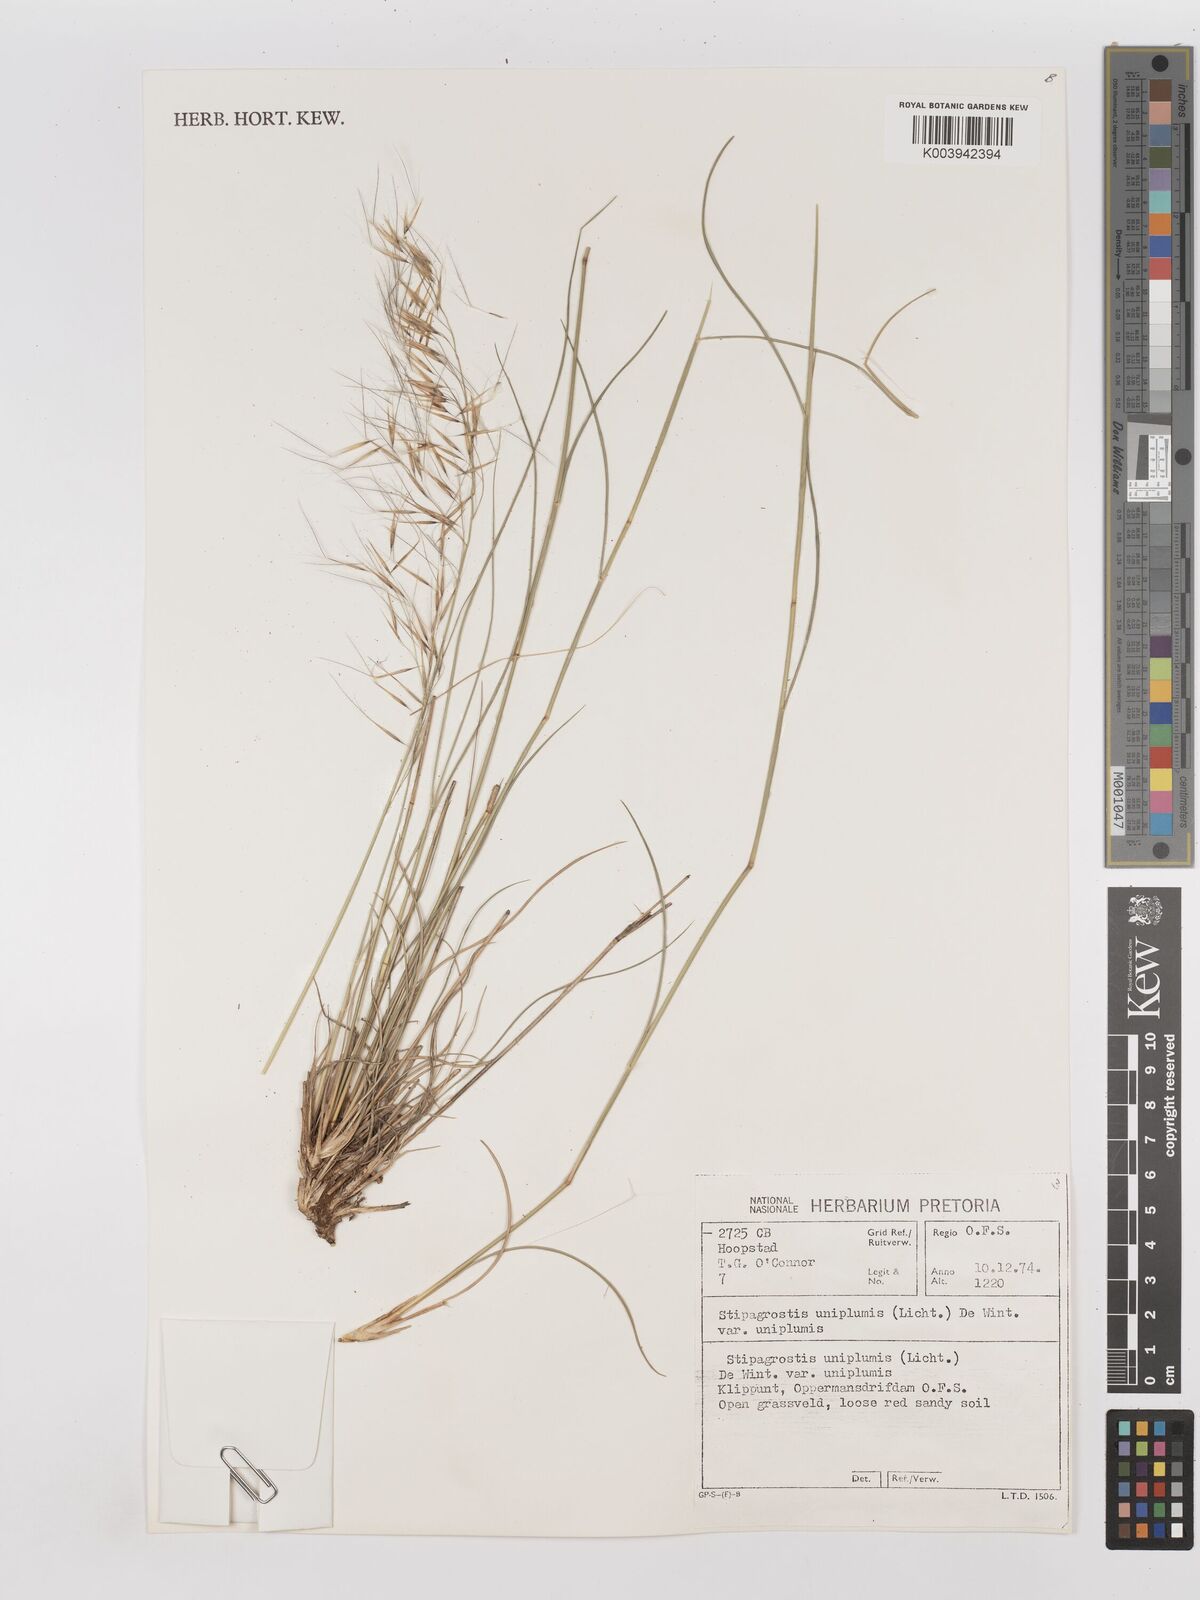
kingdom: Plantae
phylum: Tracheophyta
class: Liliopsida
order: Poales
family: Poaceae
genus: Stipagrostis
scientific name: Stipagrostis uniplumis
